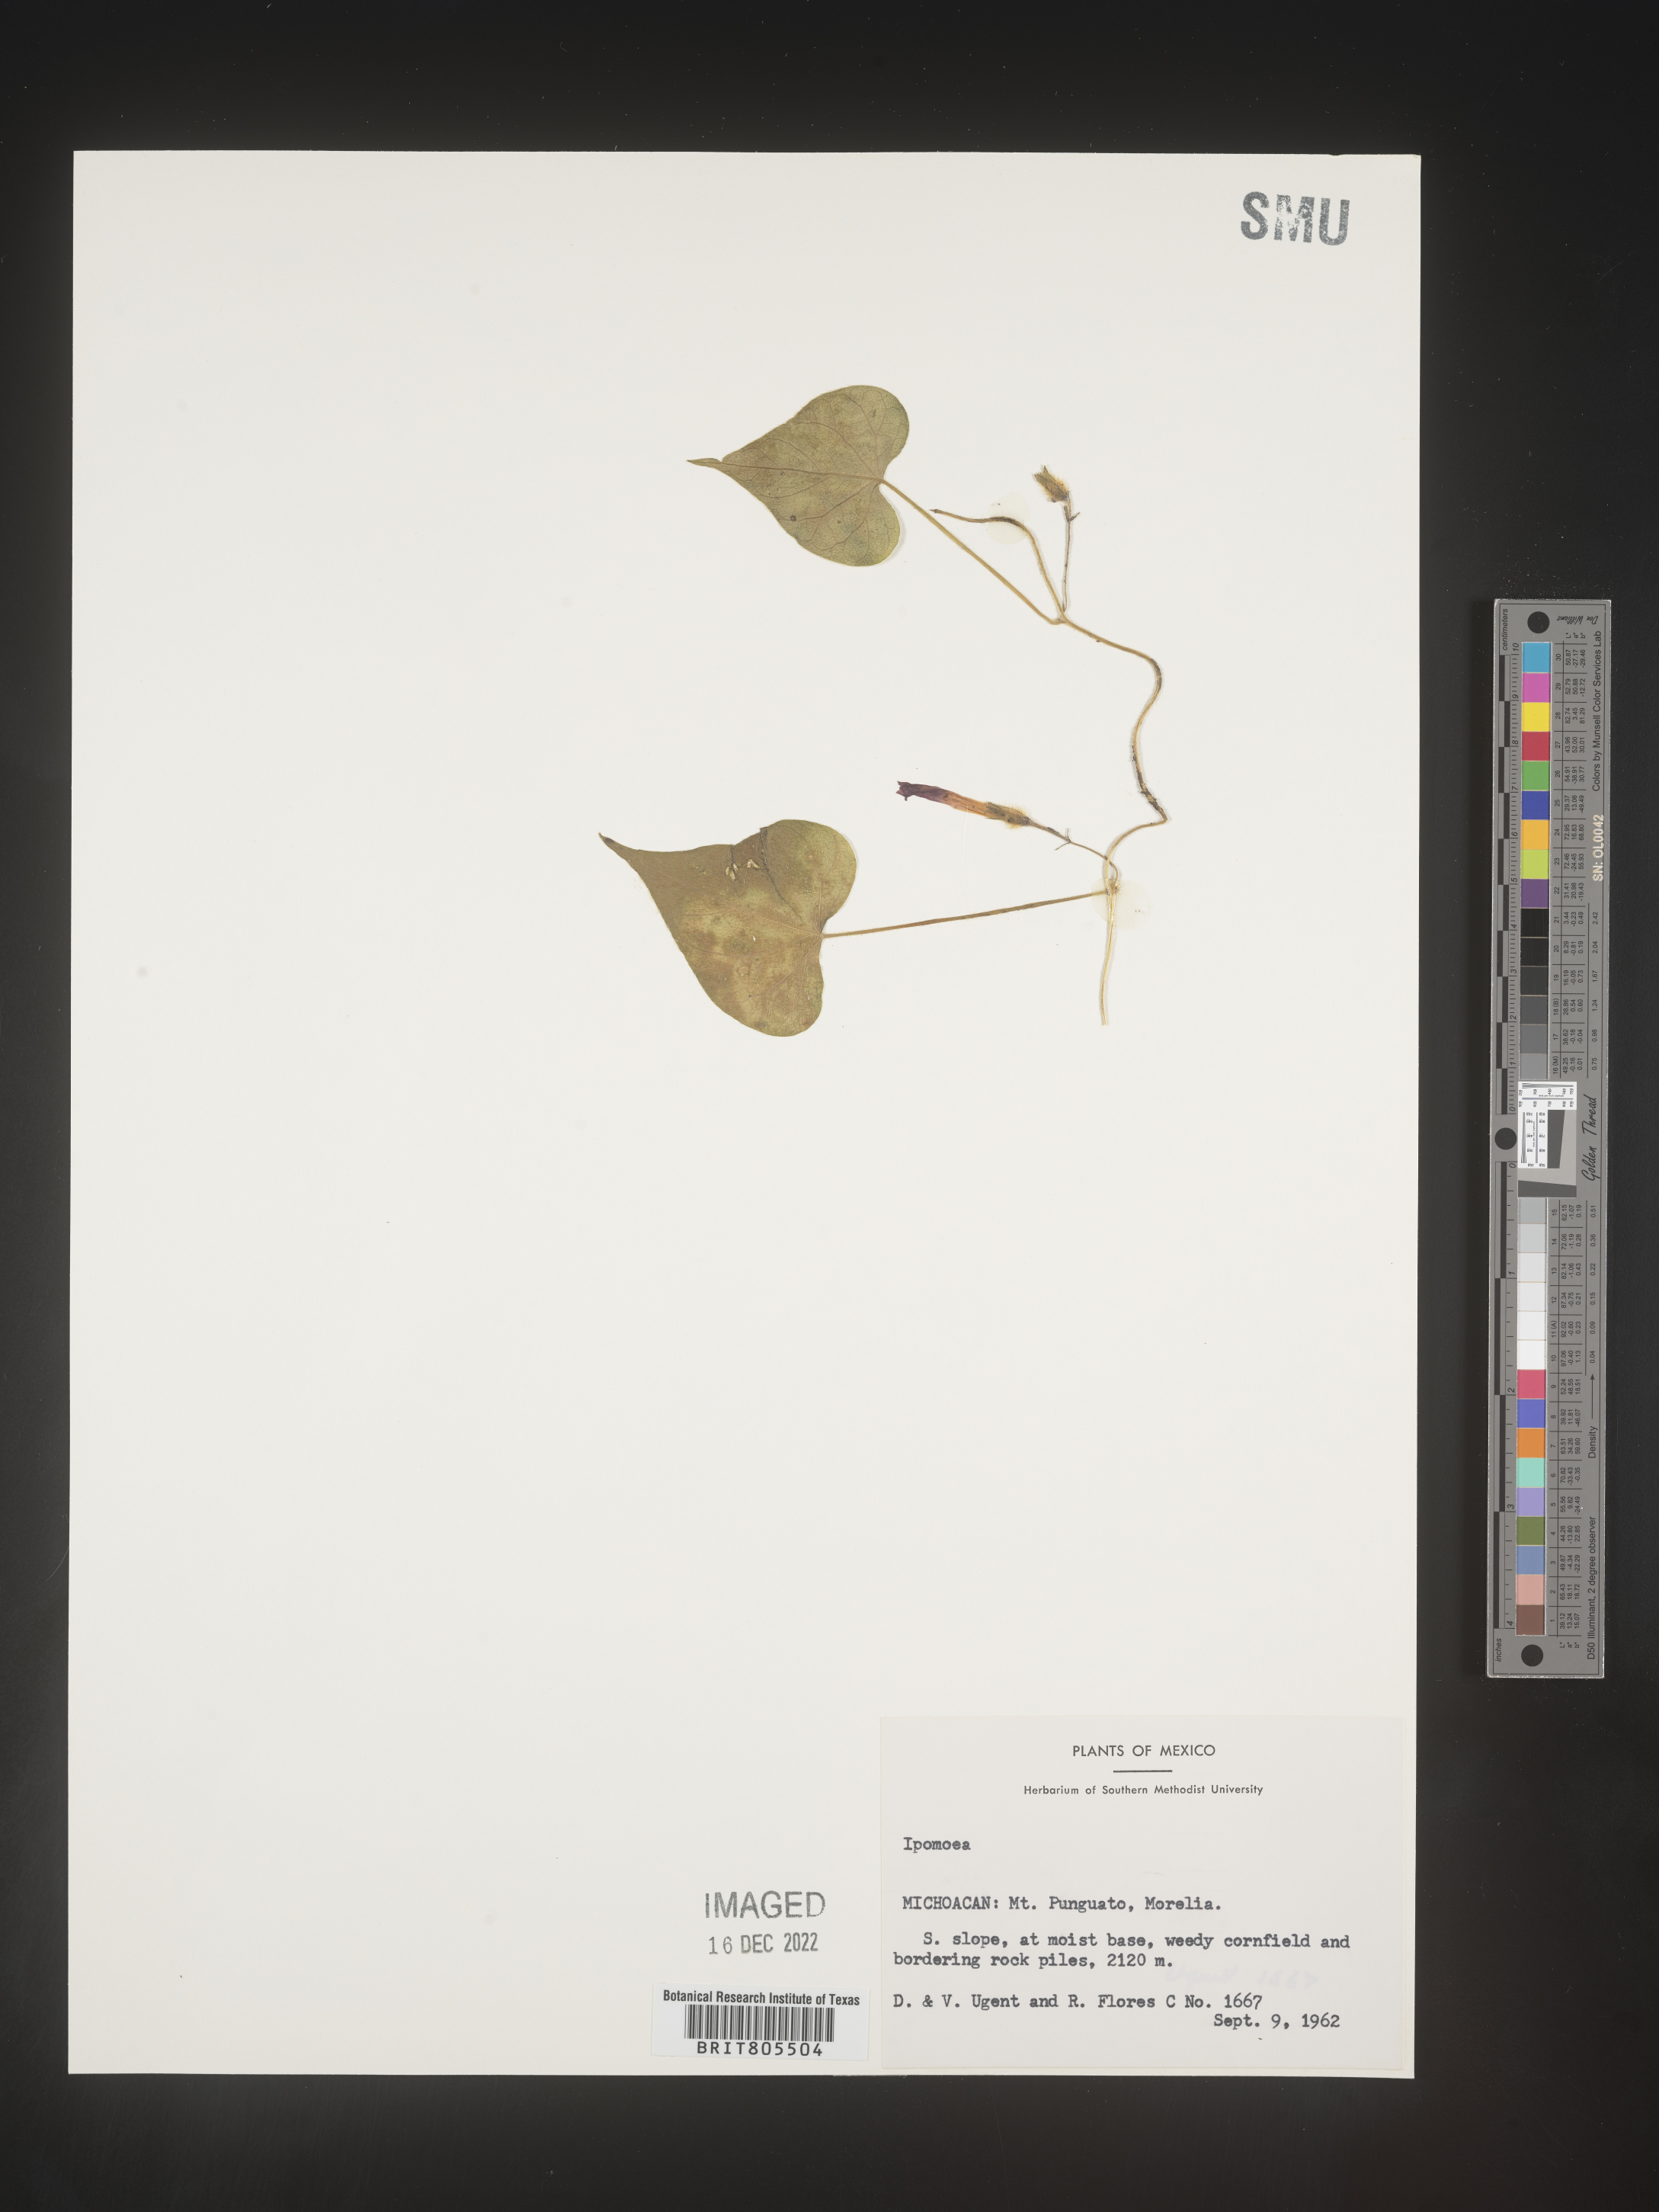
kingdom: Plantae
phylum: Tracheophyta
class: Magnoliopsida
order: Solanales
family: Convolvulaceae
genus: Ipomoea
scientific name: Ipomoea
